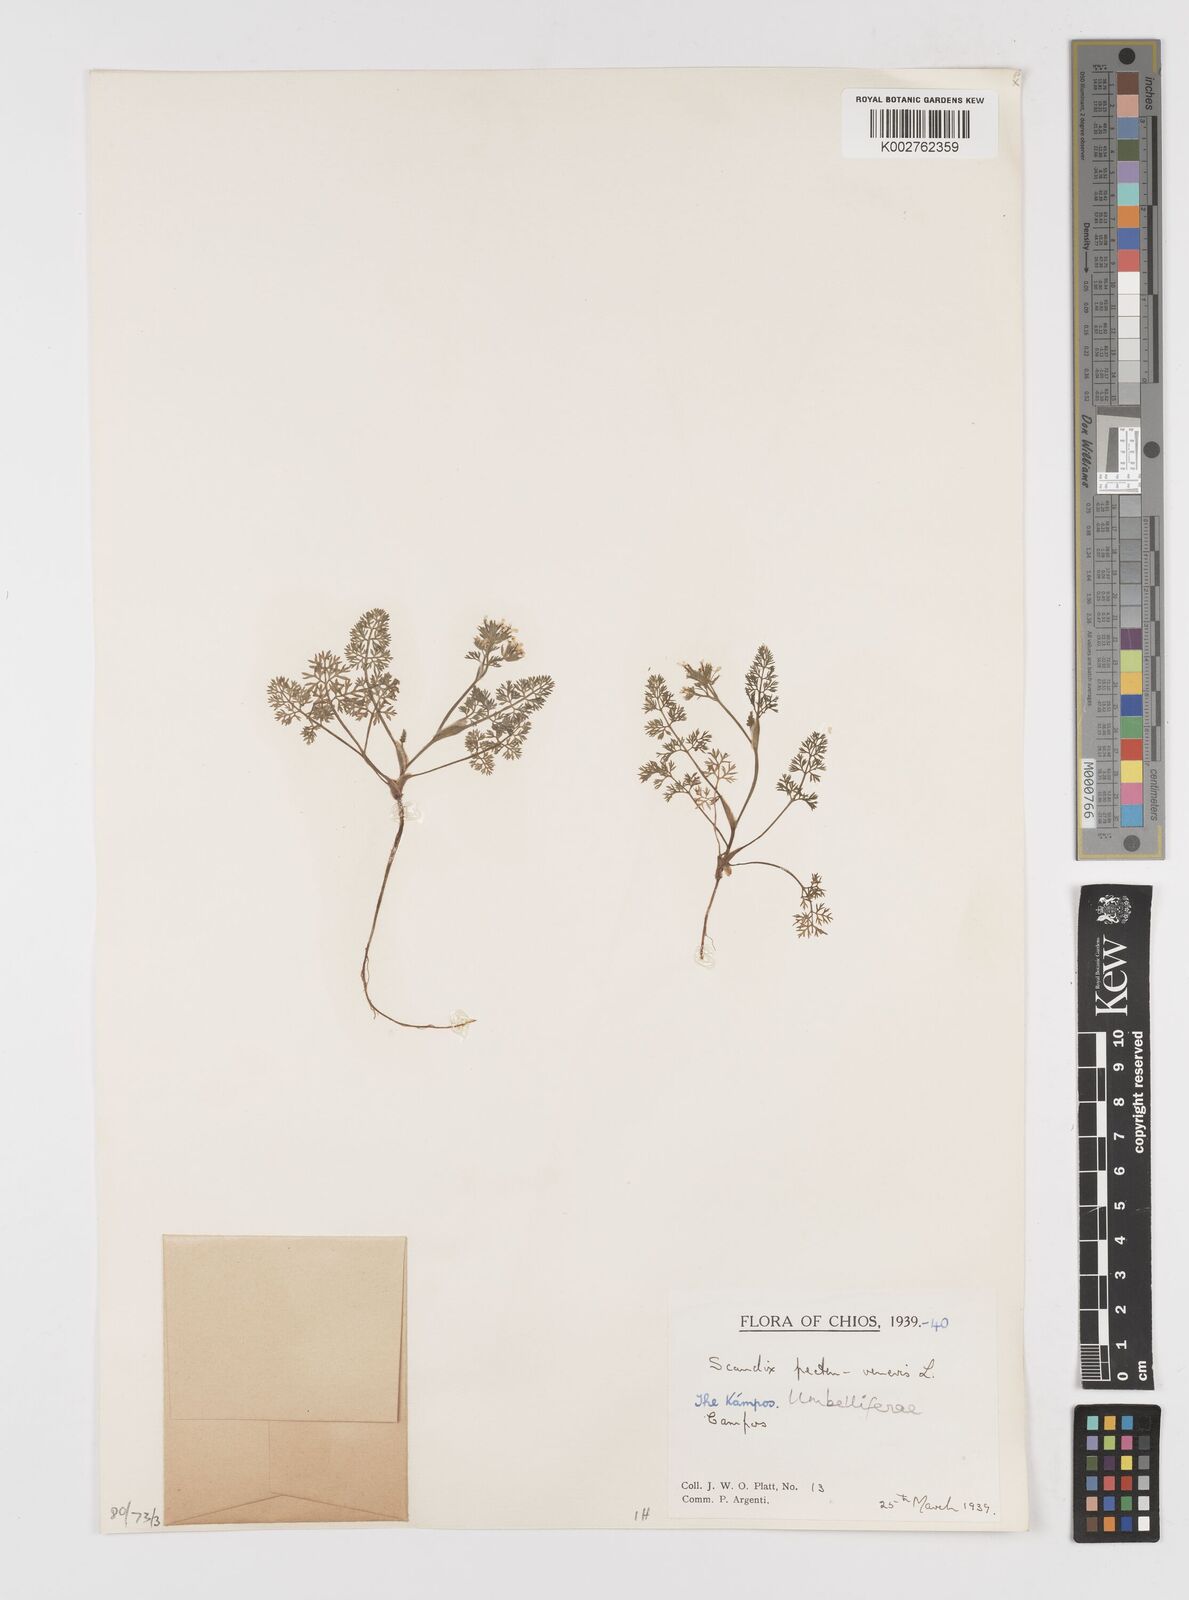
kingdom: Plantae
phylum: Tracheophyta
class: Magnoliopsida
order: Apiales
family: Apiaceae
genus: Scandix
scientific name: Scandix pecten-veneris
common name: Shepherd's-needle
